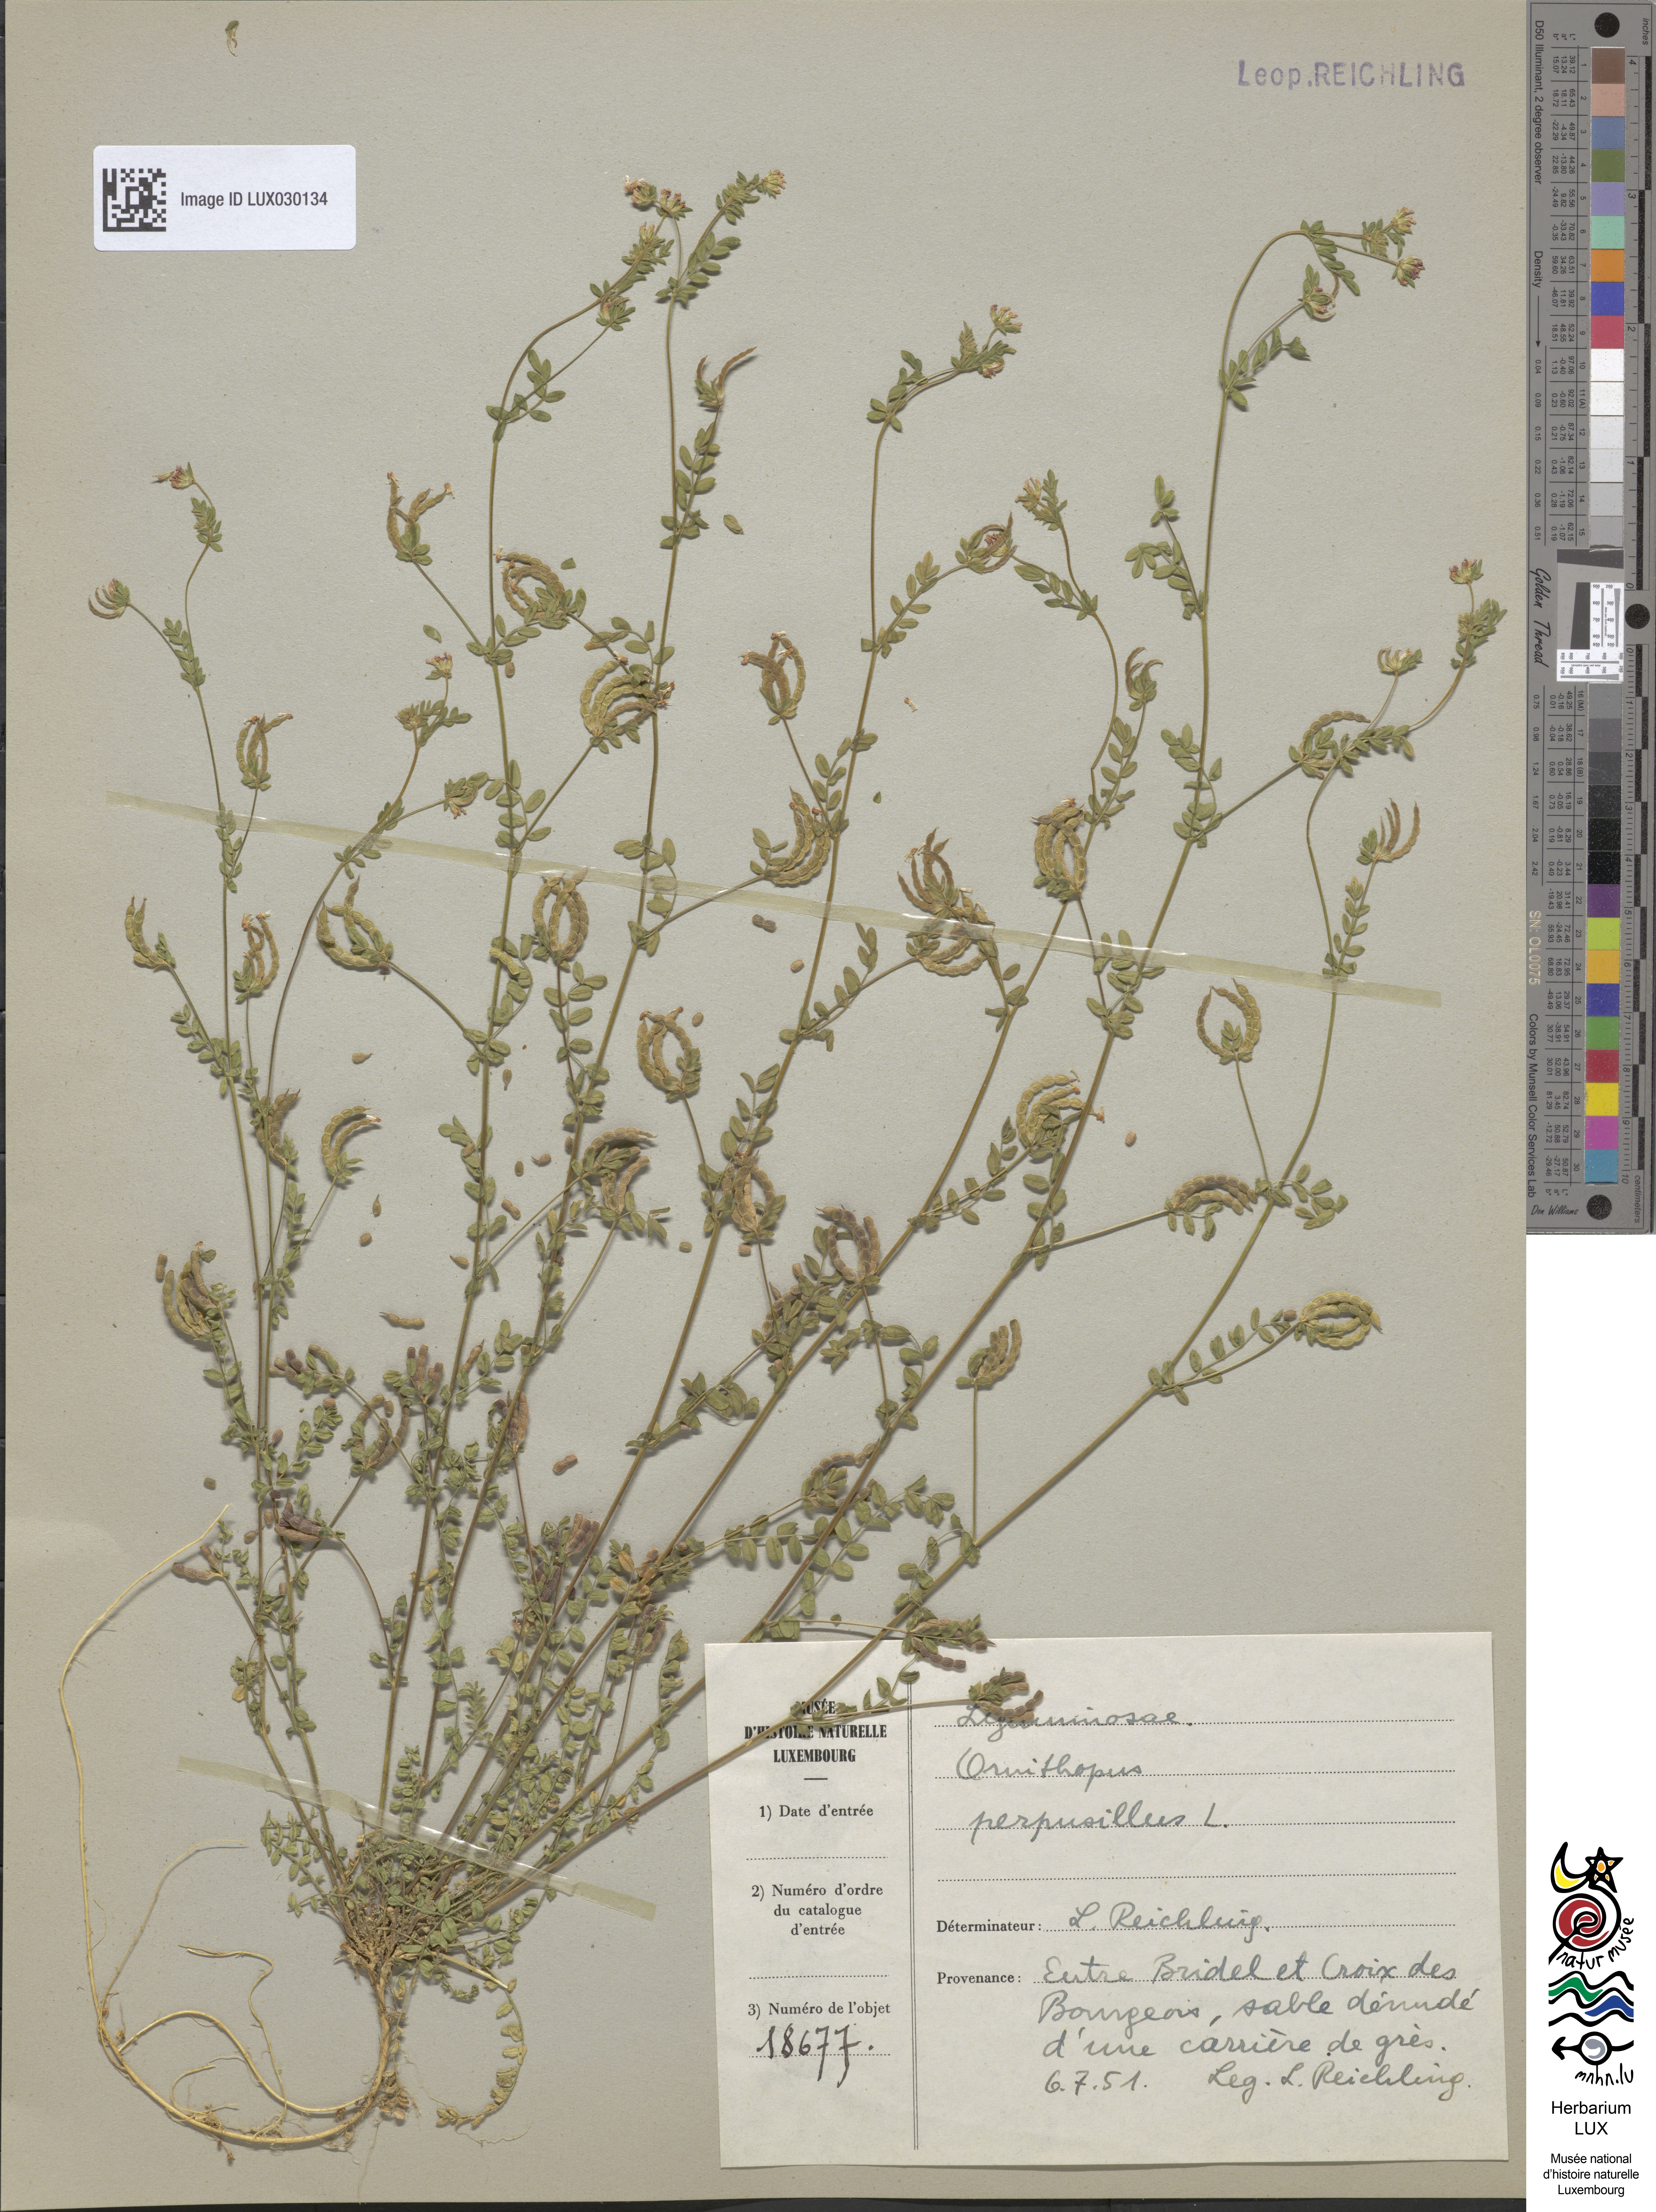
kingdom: Plantae
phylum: Tracheophyta
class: Magnoliopsida
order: Fabales
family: Fabaceae
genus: Ornithopus
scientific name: Ornithopus perpusillus
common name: Bird's-foot
